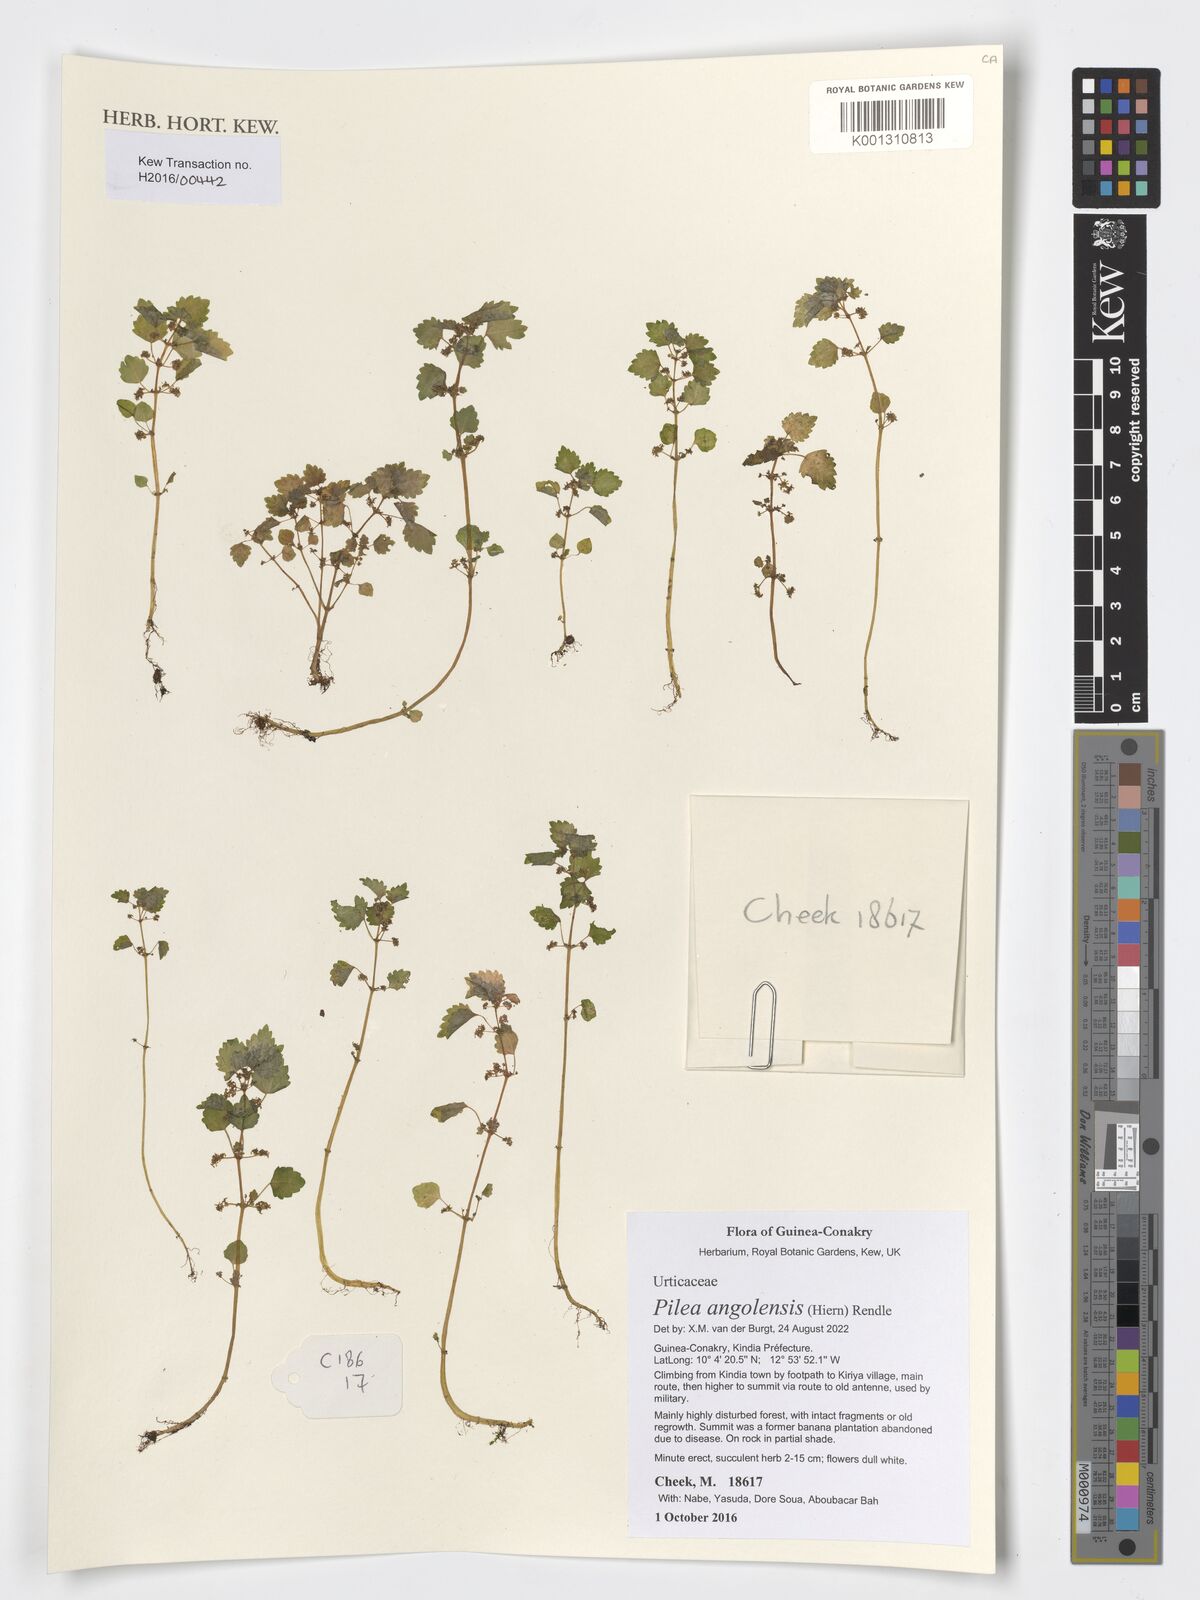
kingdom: Plantae
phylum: Tracheophyta
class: Magnoliopsida
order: Rosales
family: Urticaceae
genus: Pilea
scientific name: Pilea angolensis
